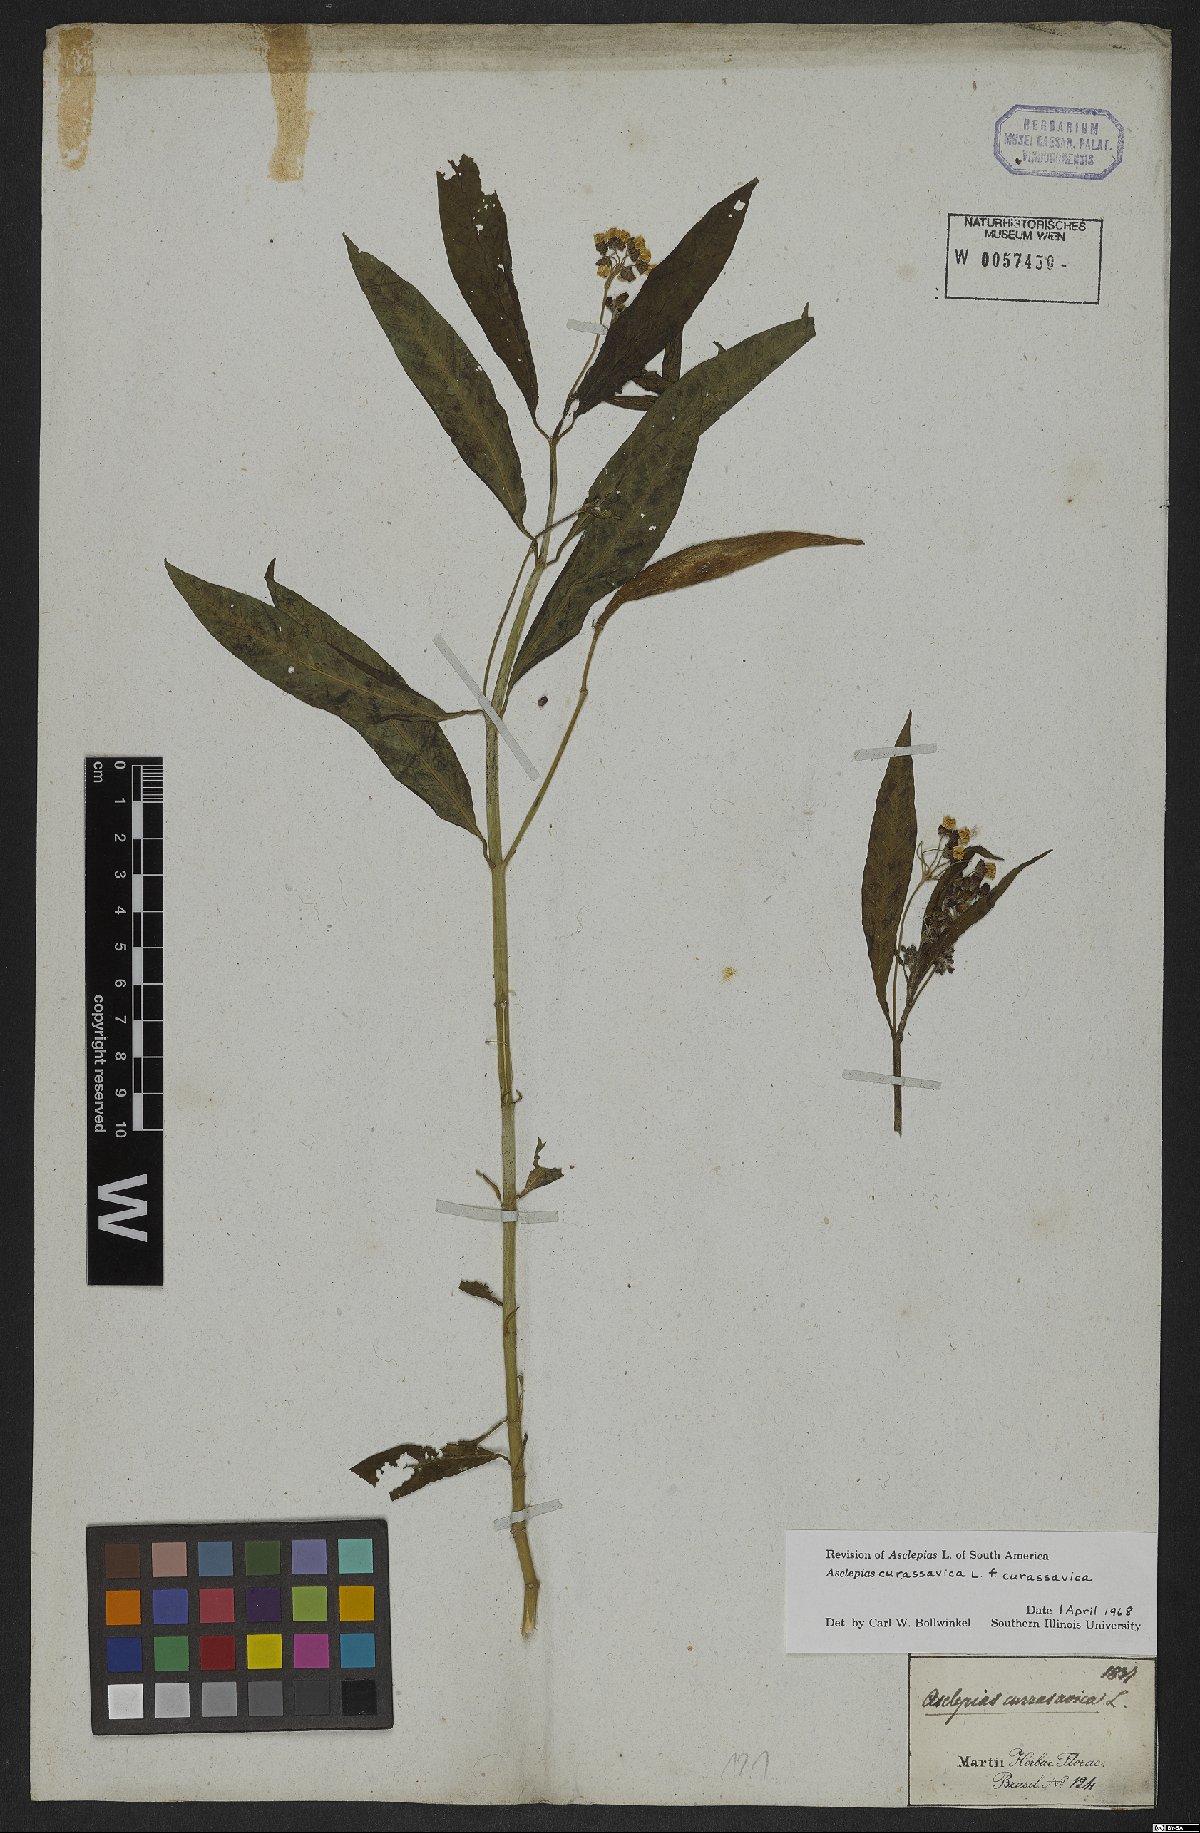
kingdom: Plantae
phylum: Tracheophyta
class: Magnoliopsida
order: Gentianales
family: Apocynaceae
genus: Asclepias
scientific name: Asclepias curassavica
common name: Bloodflower
